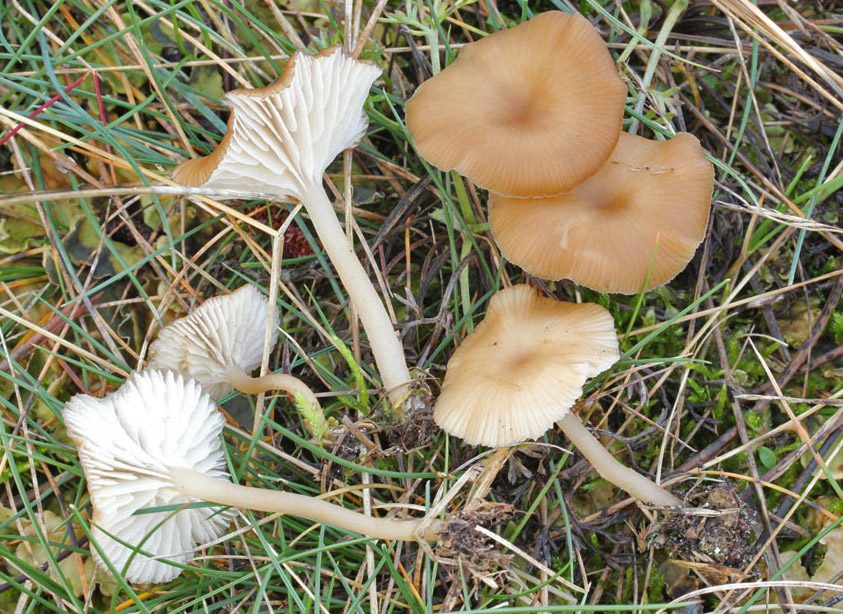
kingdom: Fungi
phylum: Basidiomycota
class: Agaricomycetes
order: Agaricales
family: Tricholomataceae
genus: Gamundia
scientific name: Gamundia xerophila
